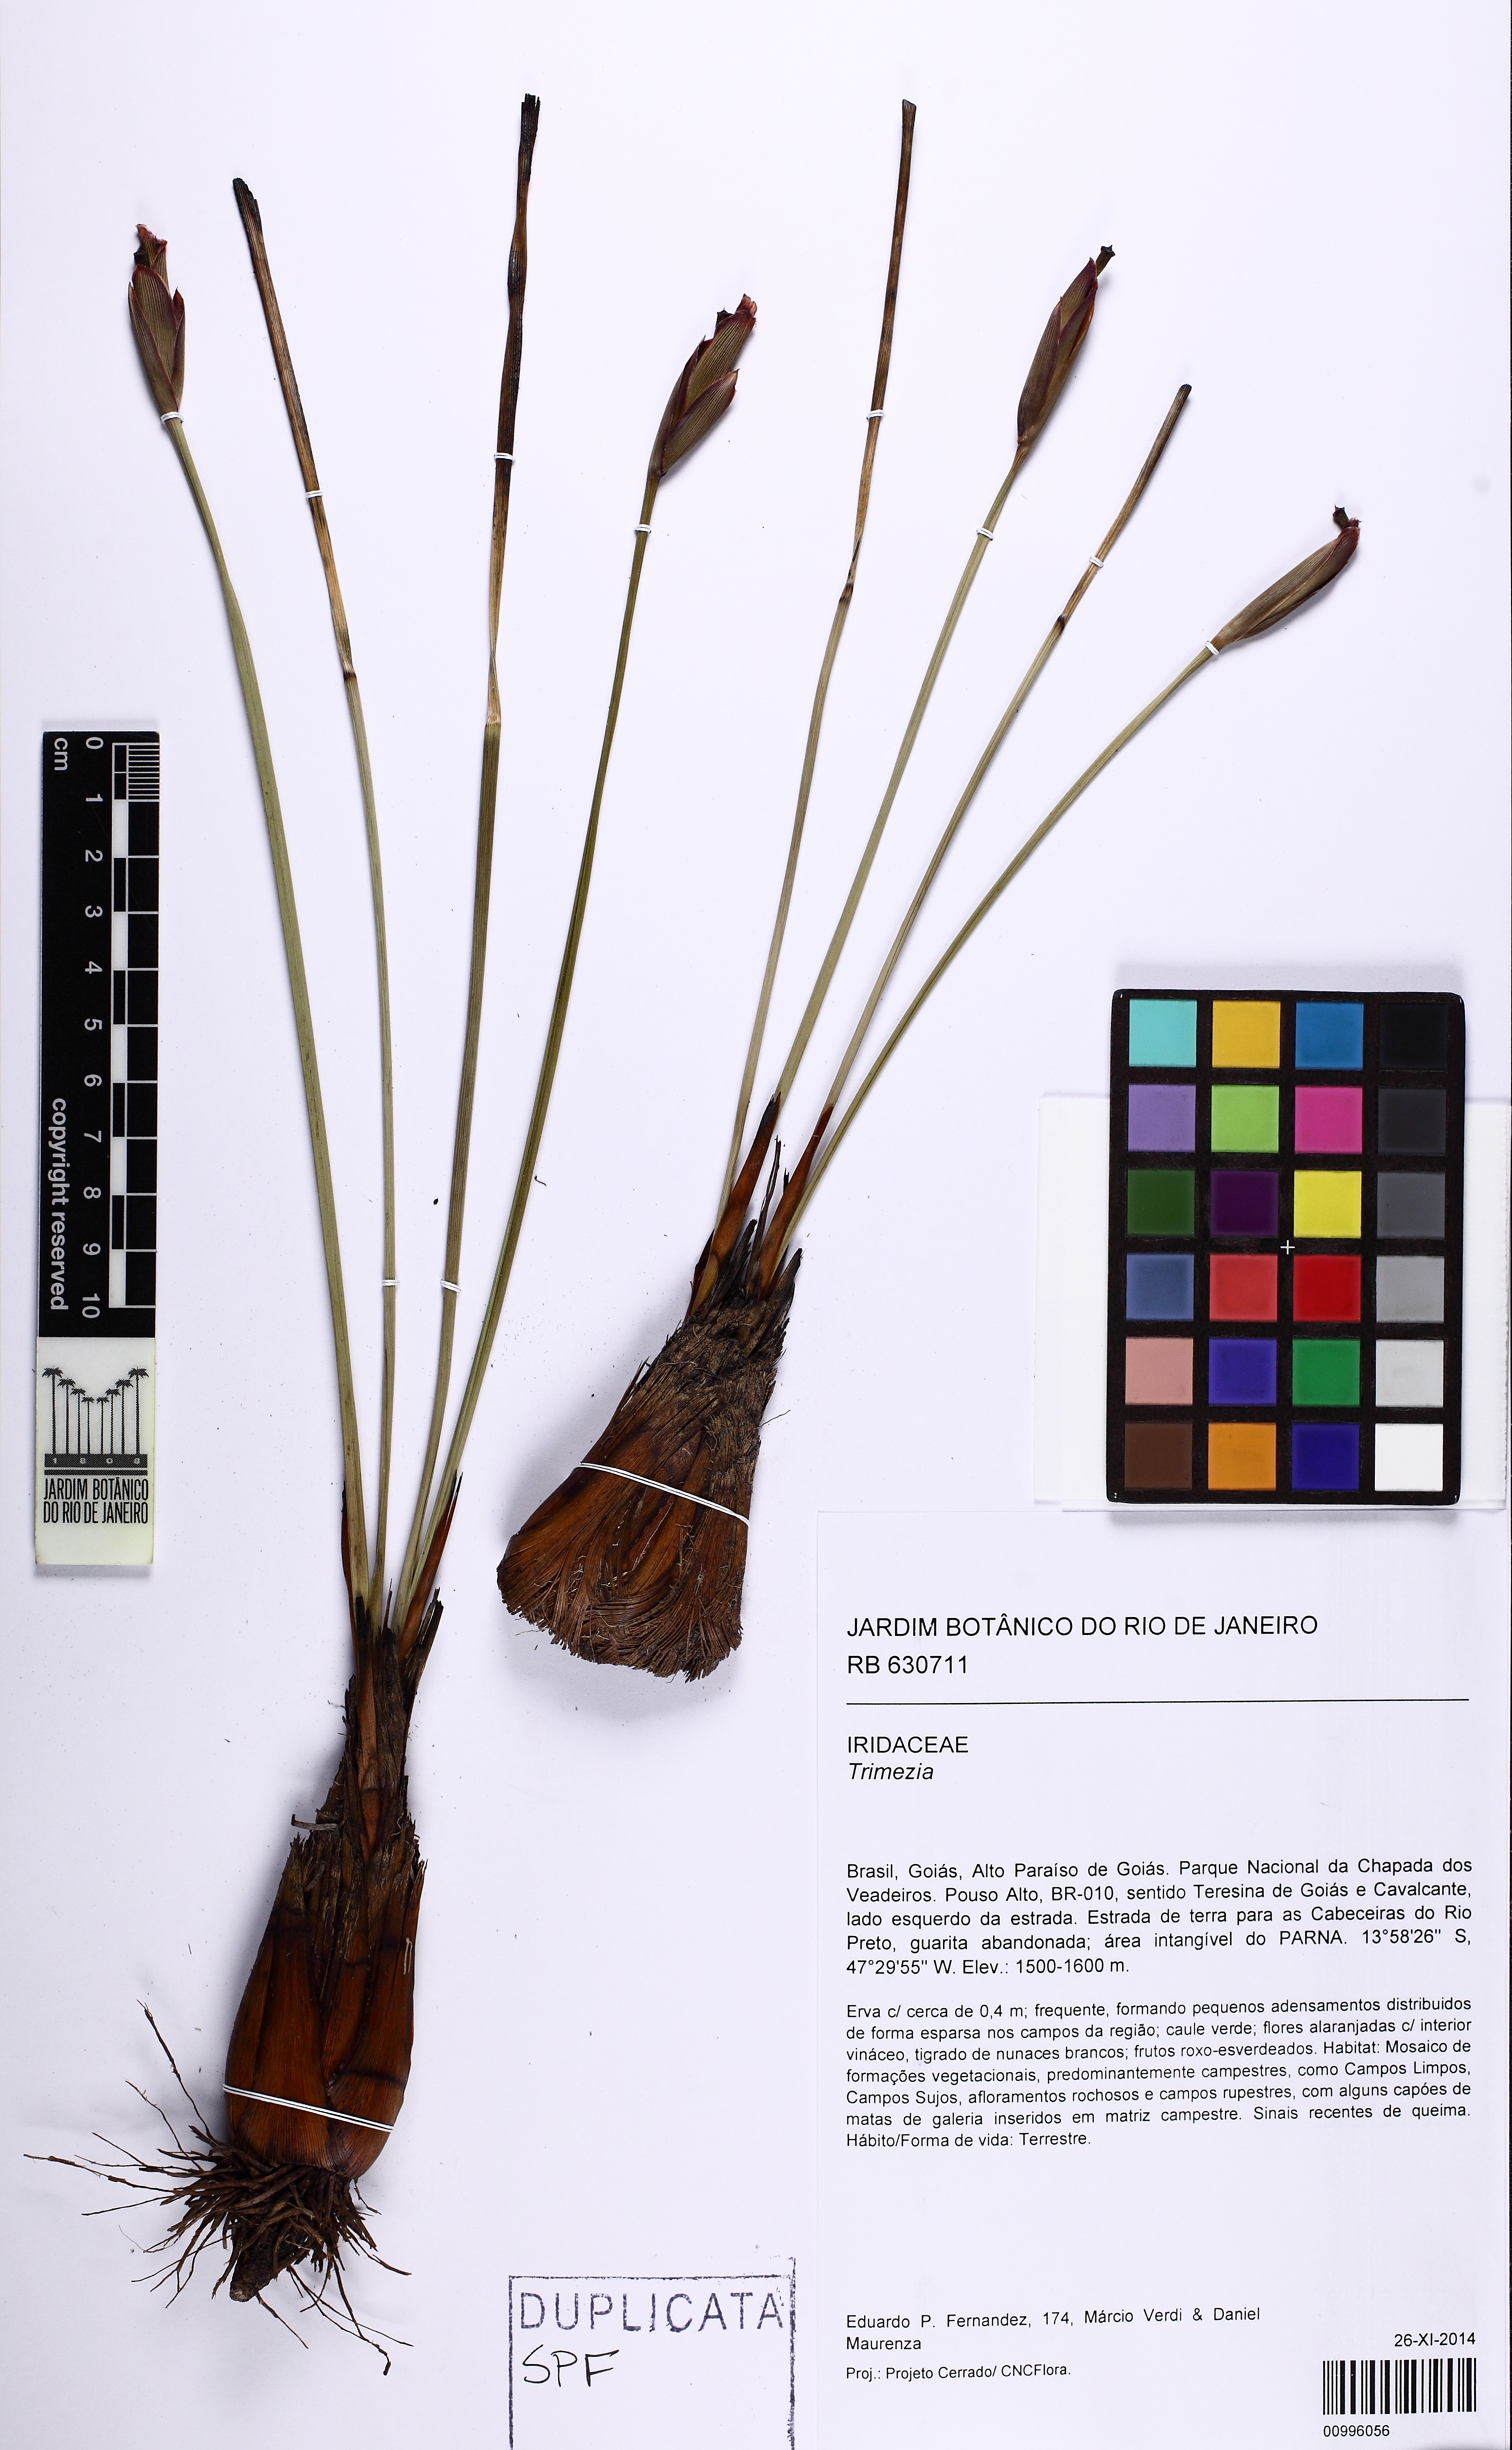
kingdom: Plantae
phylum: Tracheophyta
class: Liliopsida
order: Asparagales
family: Iridaceae
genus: Trimezia
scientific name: Trimezia
